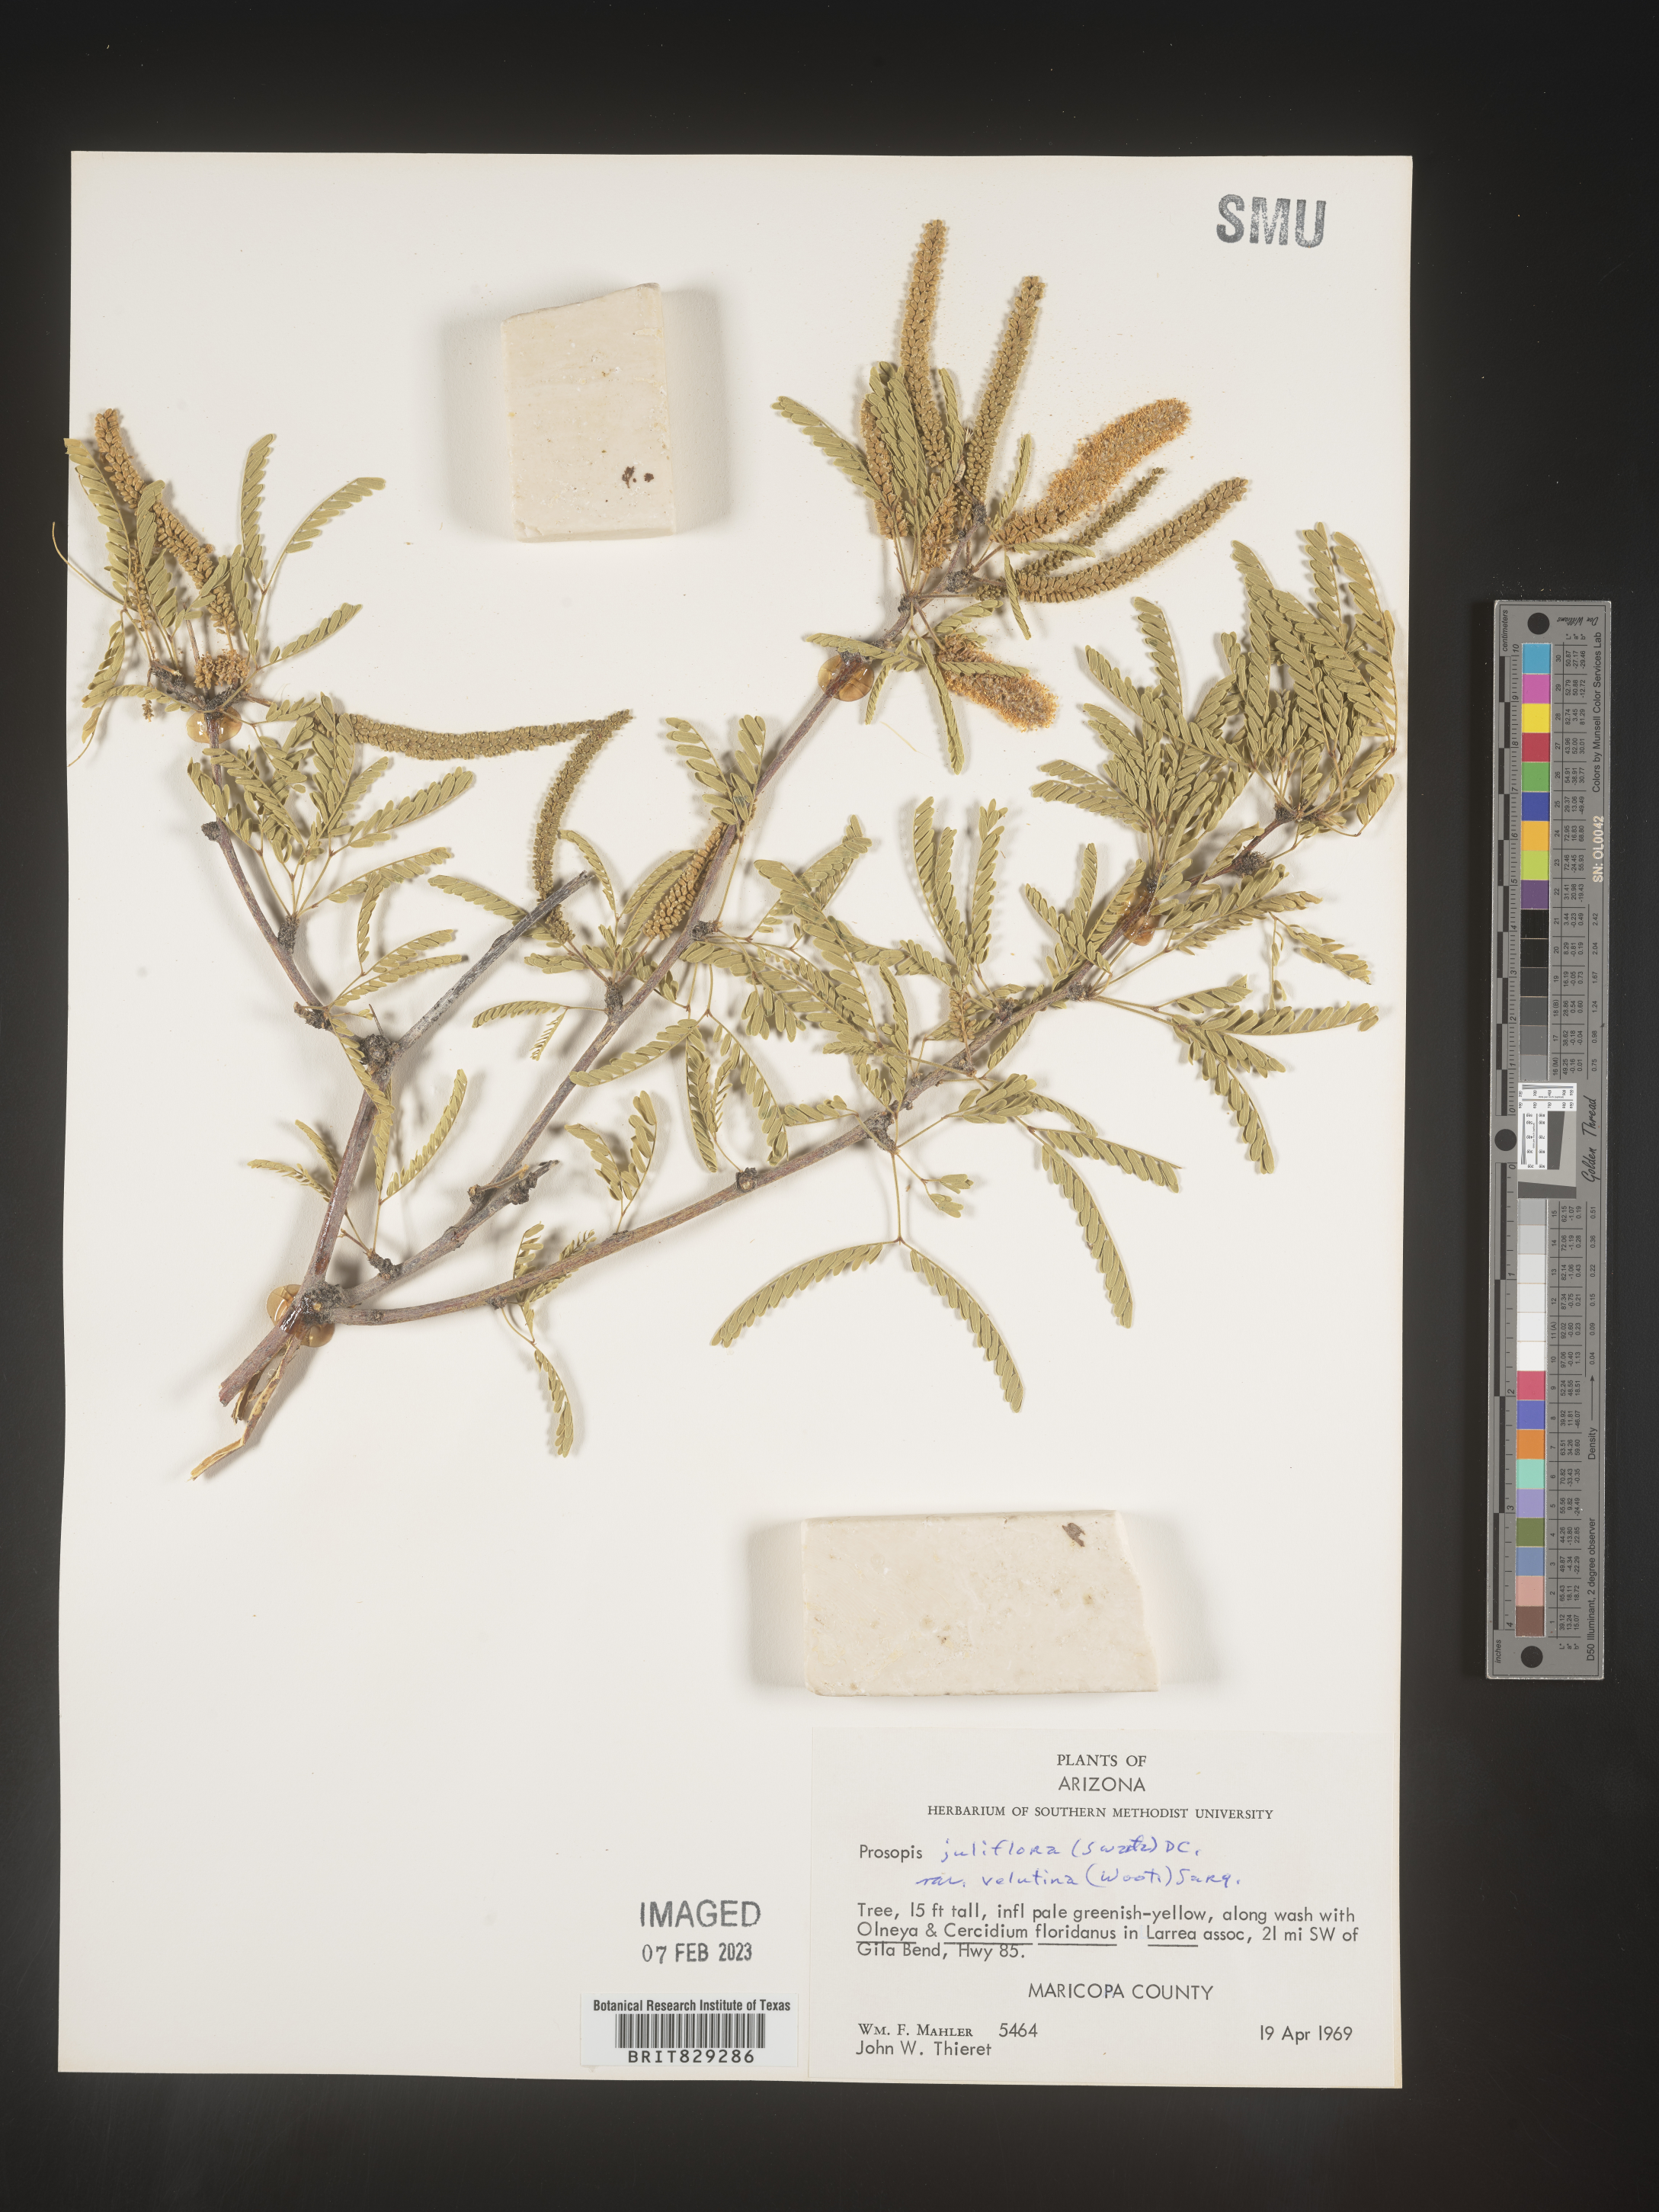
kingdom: Plantae
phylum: Tracheophyta
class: Magnoliopsida
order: Fabales
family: Fabaceae
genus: Prosopis
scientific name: Prosopis juliflora
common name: Mesquite
